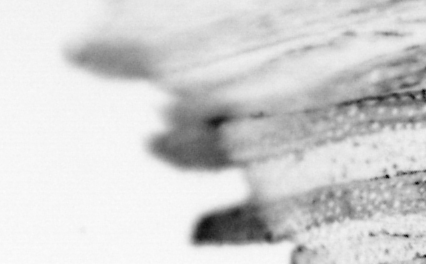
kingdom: Animalia
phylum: Chordata
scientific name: Chordata
